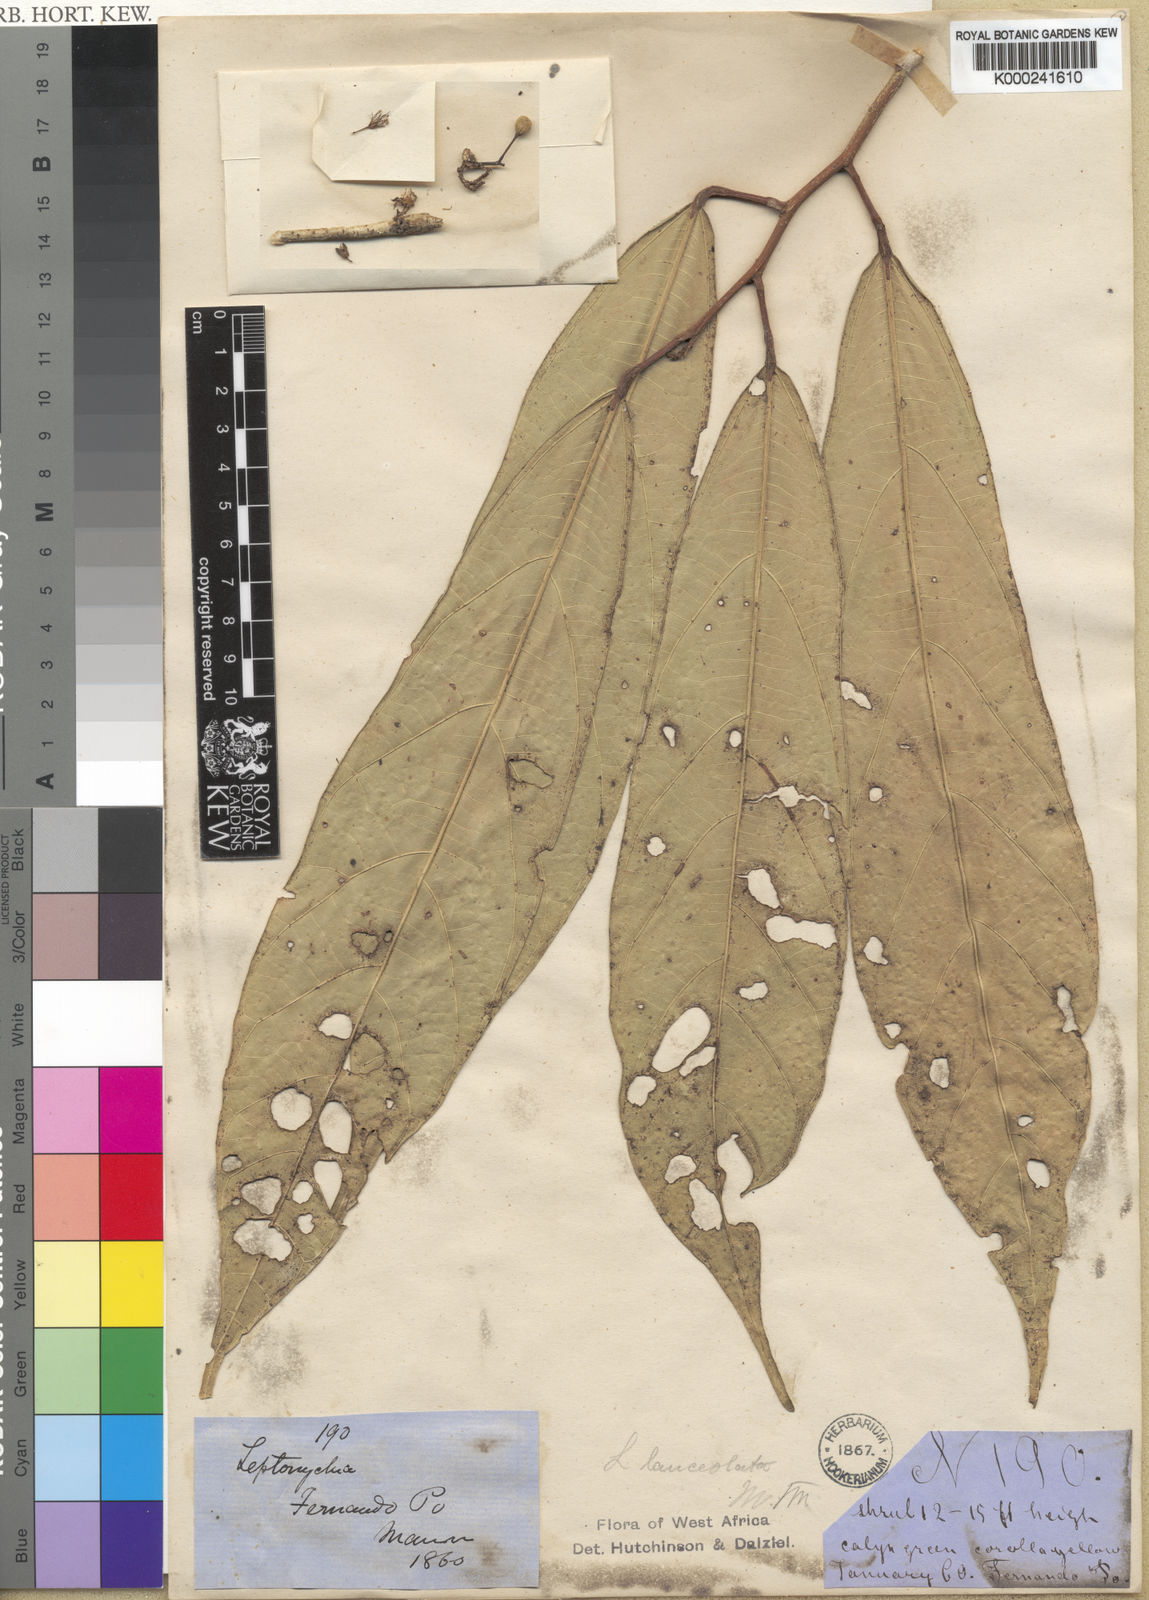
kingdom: Plantae
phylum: Tracheophyta
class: Magnoliopsida
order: Malvales
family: Malvaceae
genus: Leptonychia
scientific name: Leptonychia lanceolata
